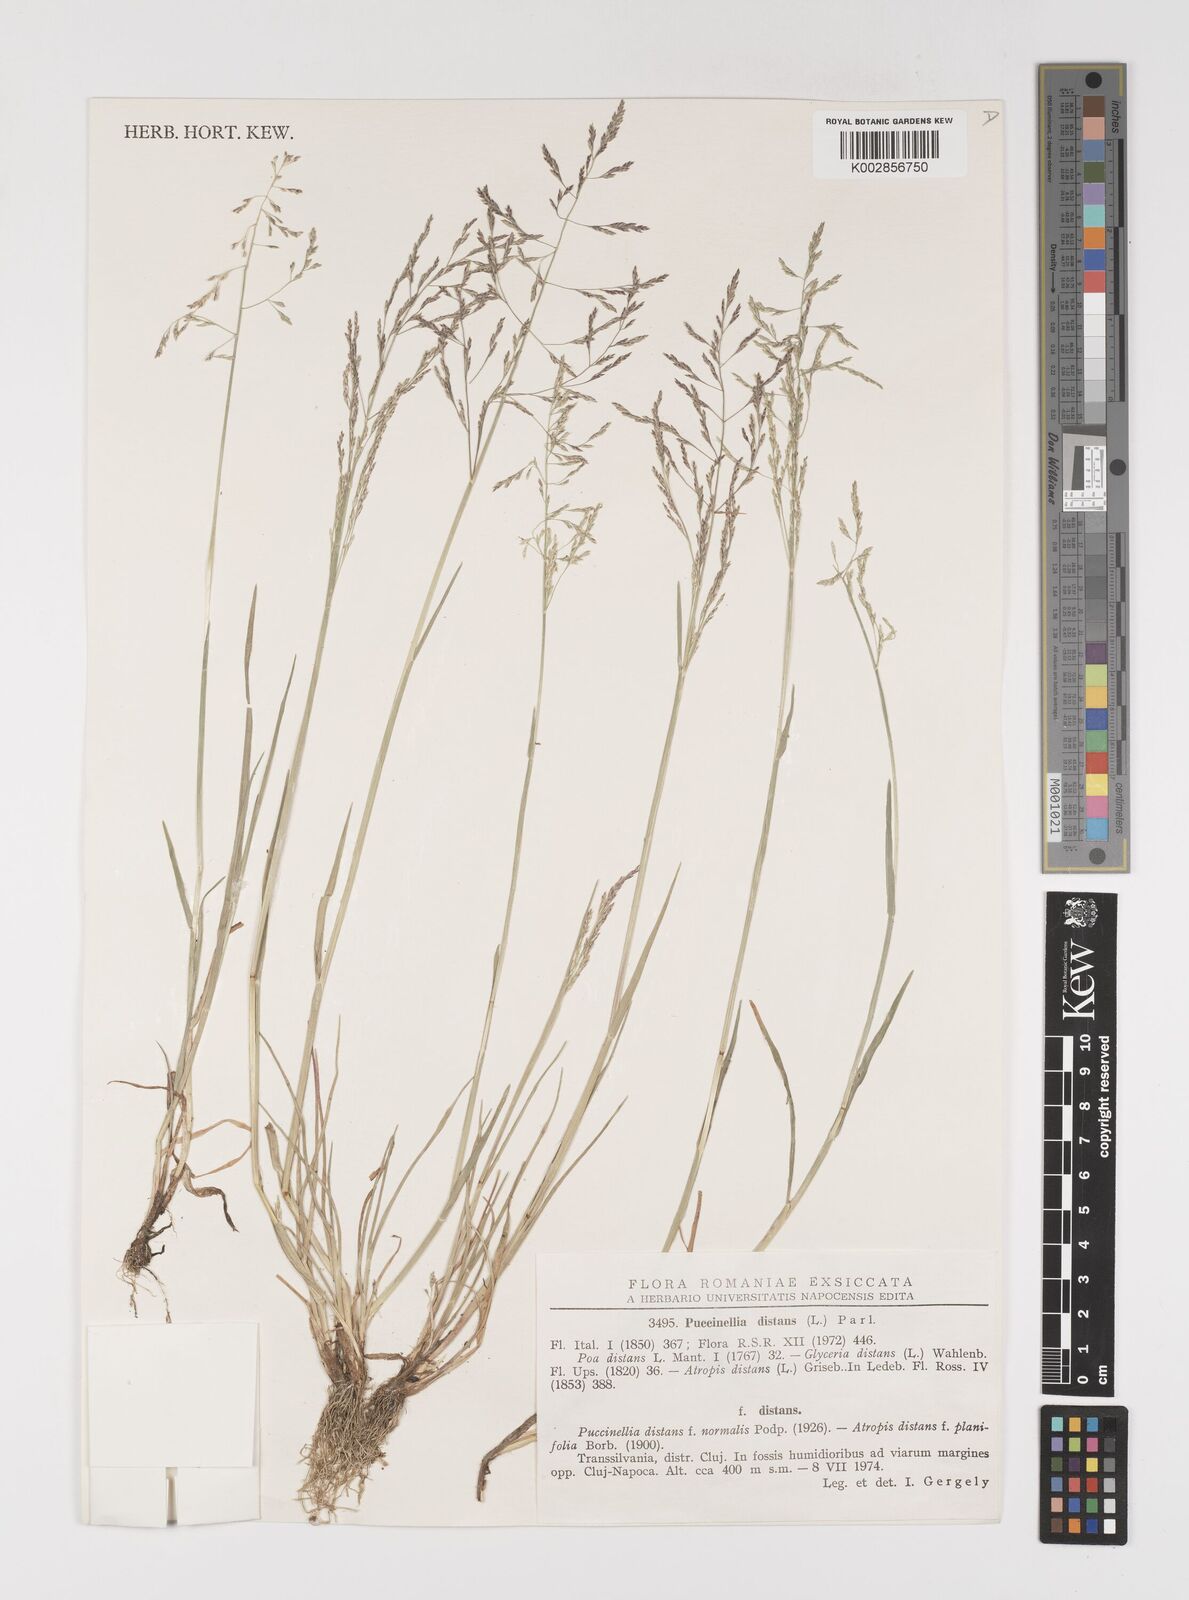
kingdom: Plantae
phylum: Tracheophyta
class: Liliopsida
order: Poales
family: Poaceae
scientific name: Poaceae
